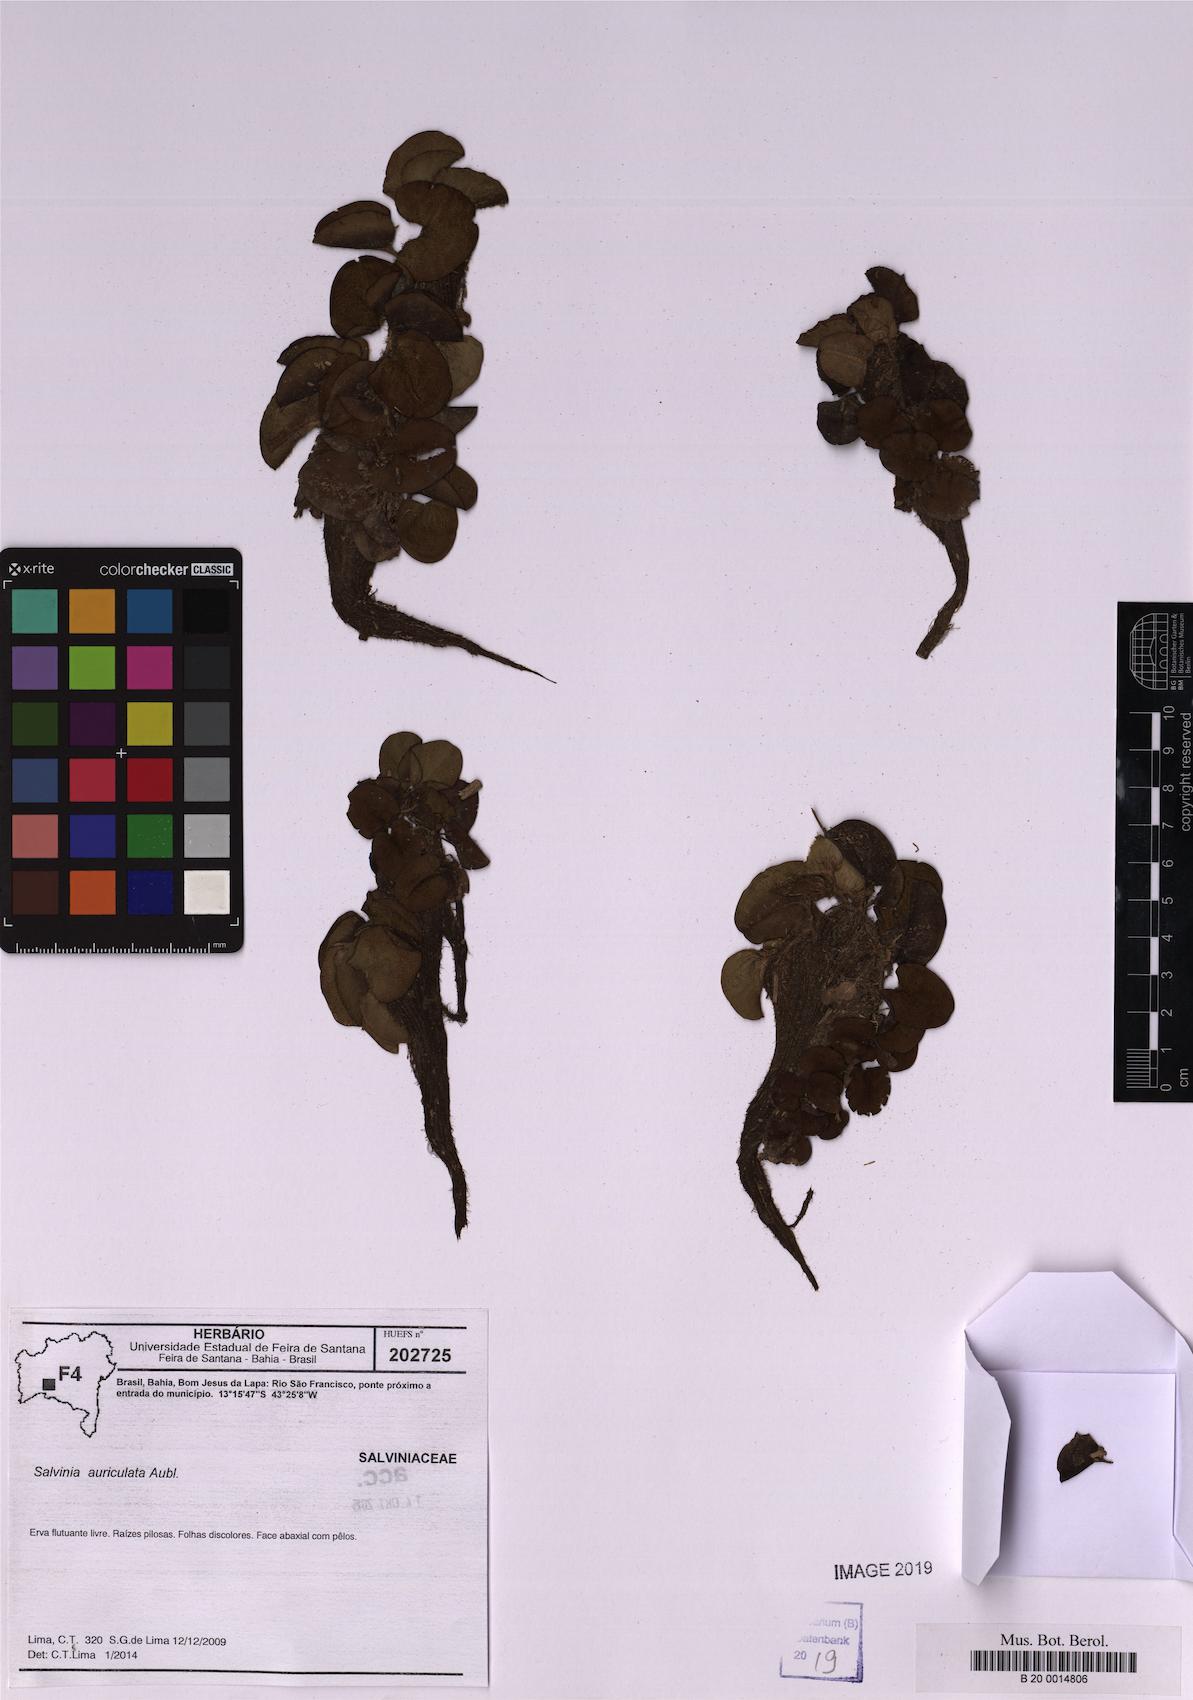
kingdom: Plantae
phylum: Tracheophyta
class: Polypodiopsida
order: Salviniales
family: Salviniaceae
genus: Salvinia
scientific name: Salvinia auriculata
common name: African payal
